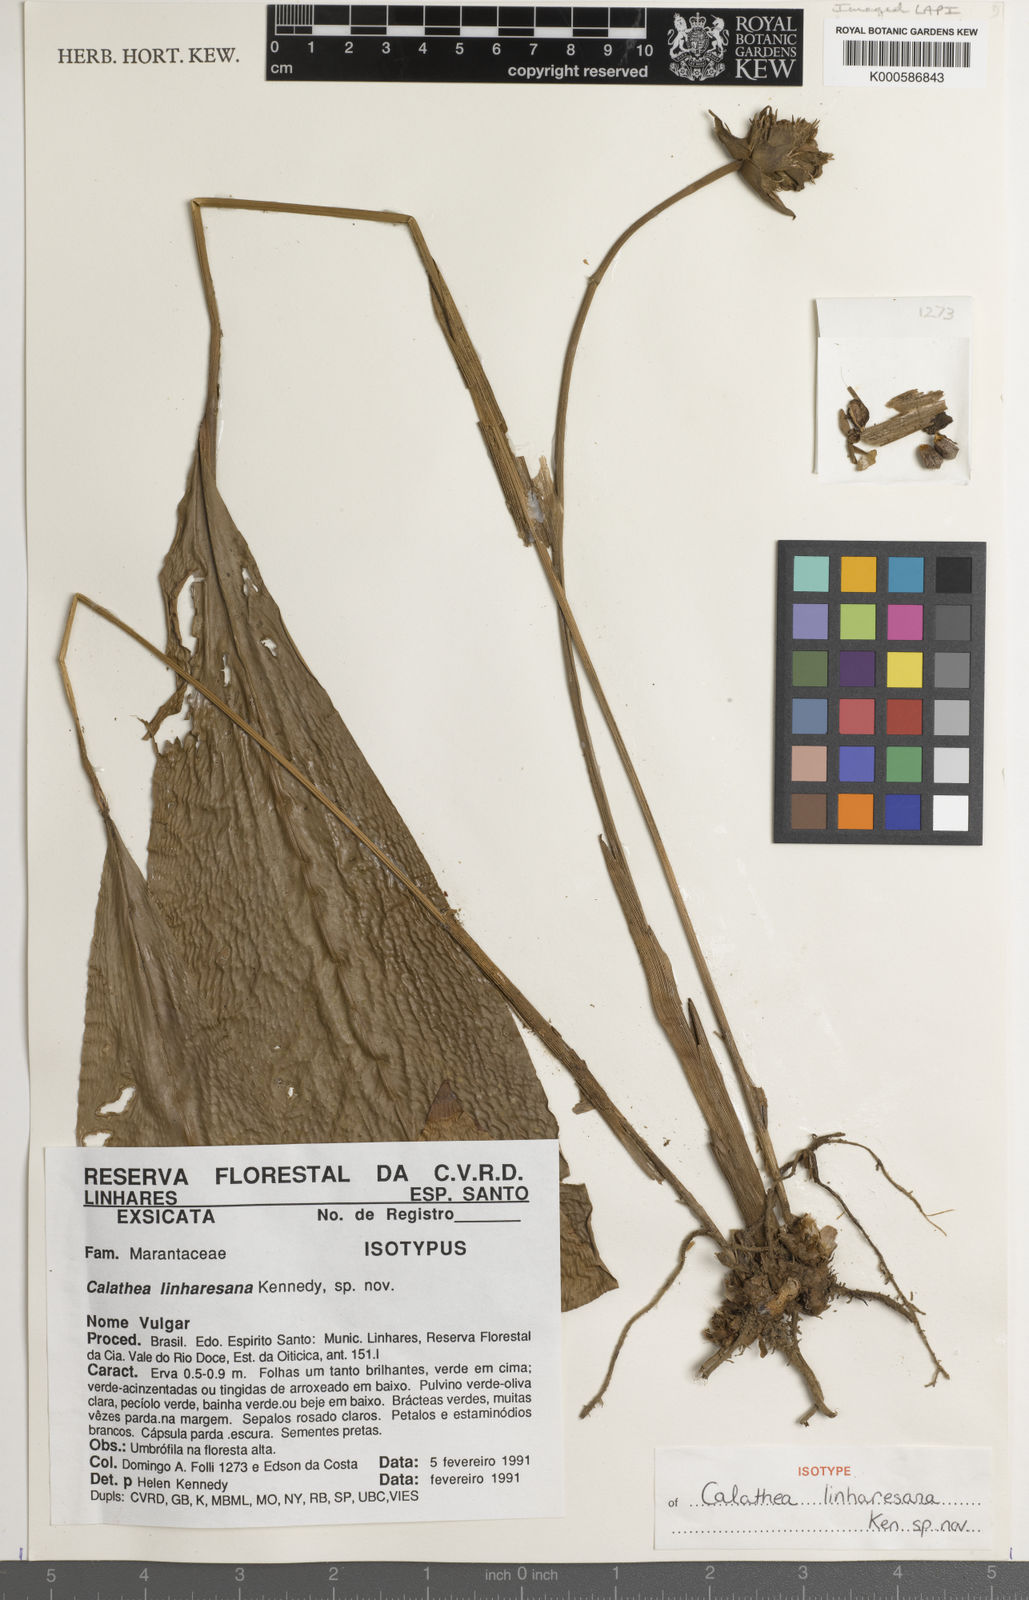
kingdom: Plantae
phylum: Tracheophyta
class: Liliopsida
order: Zingiberales
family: Marantaceae
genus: Calathea
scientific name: Calathea
